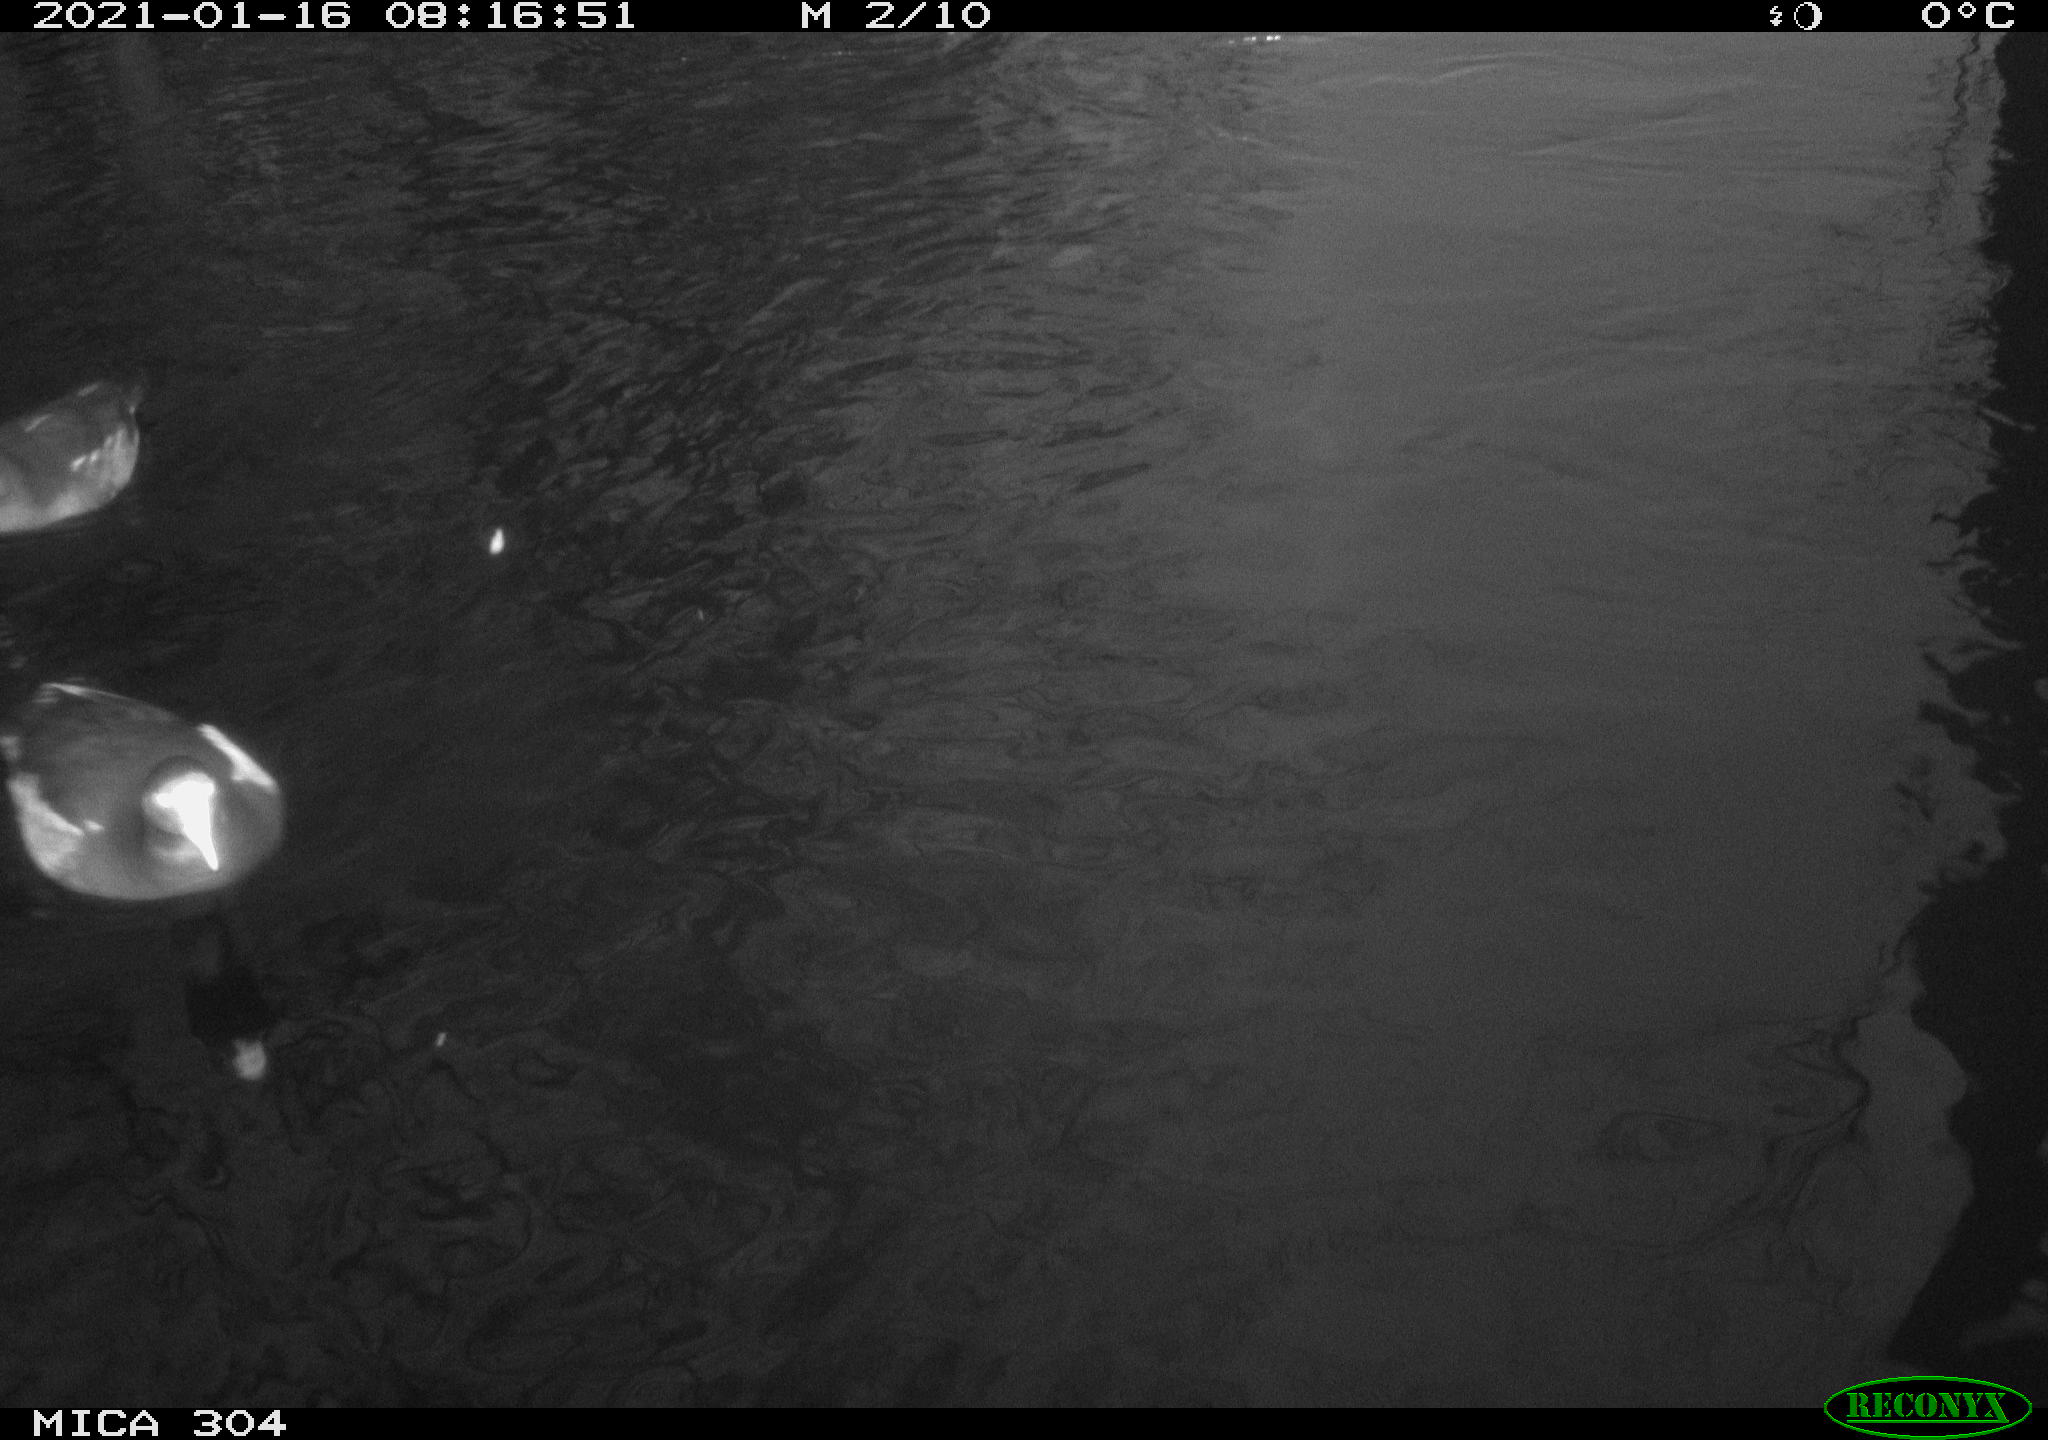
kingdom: Animalia
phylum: Chordata
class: Aves
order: Gruiformes
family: Rallidae
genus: Gallinula
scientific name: Gallinula chloropus
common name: Common moorhen
